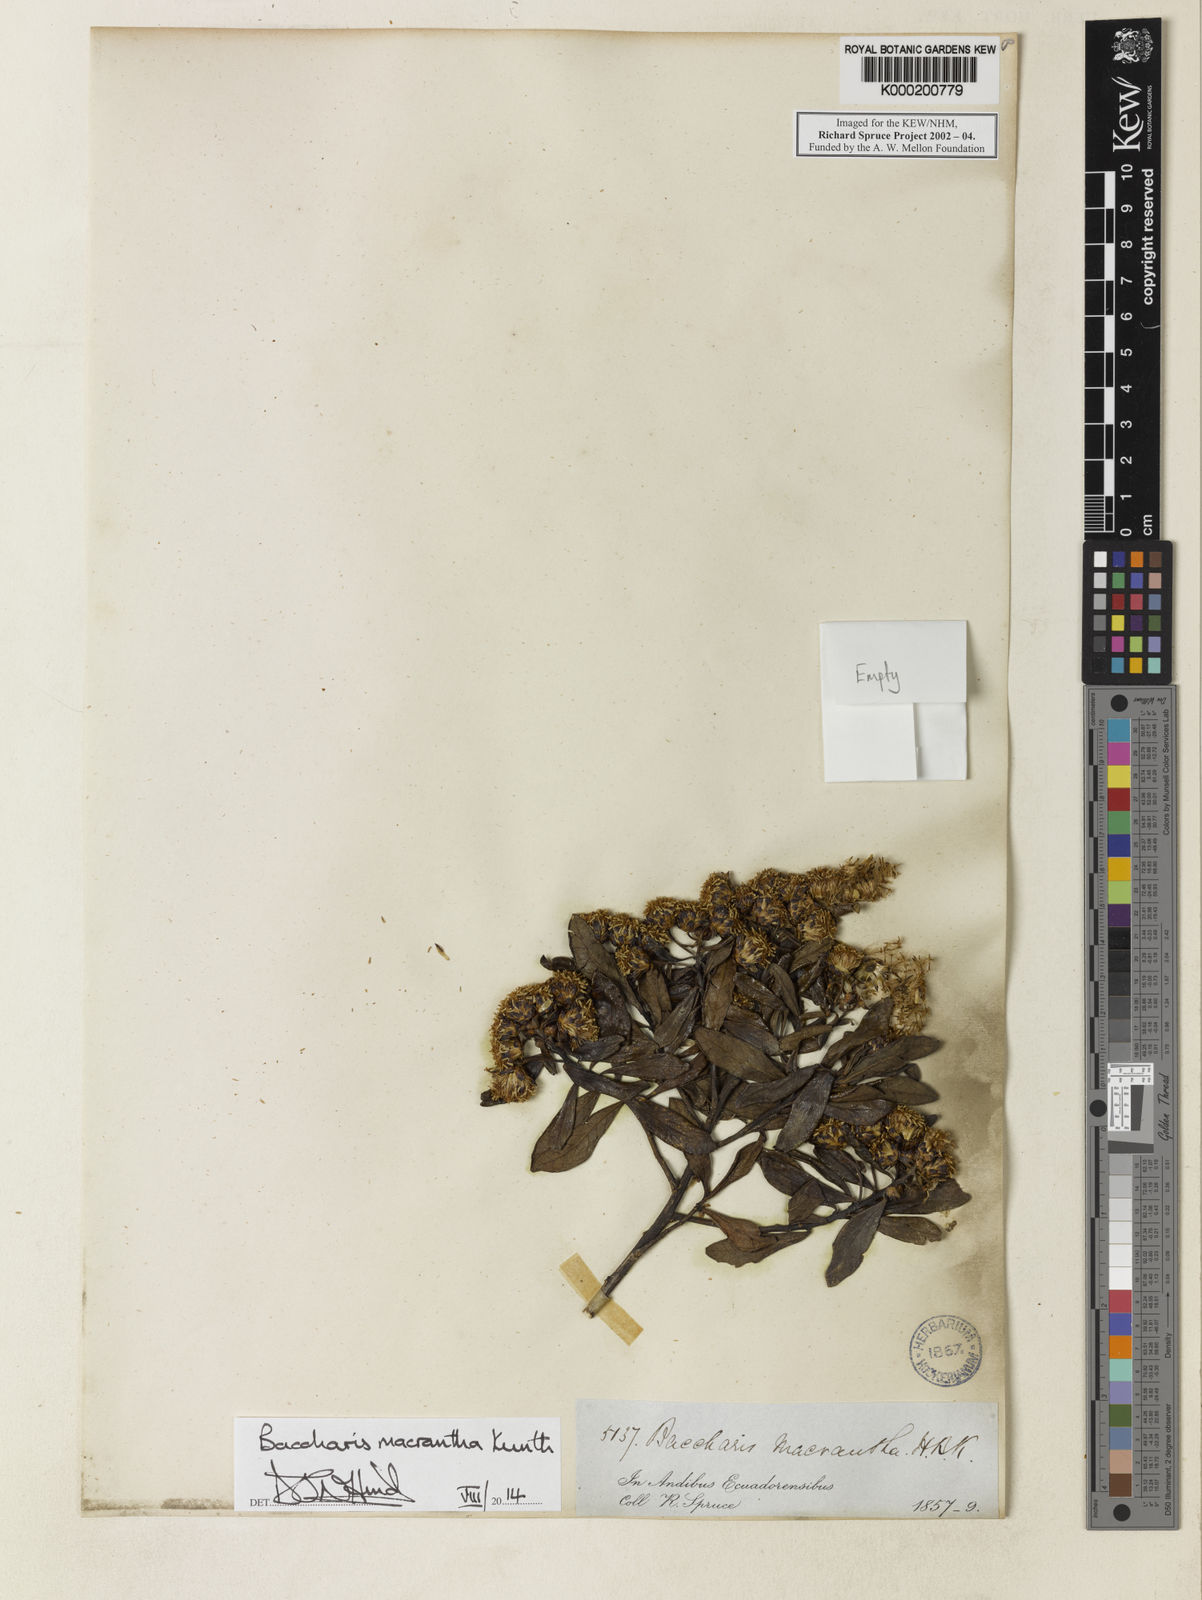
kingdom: Plantae
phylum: Tracheophyta
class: Magnoliopsida
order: Asterales
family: Asteraceae
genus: Baccharis
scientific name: Baccharis macrantha
